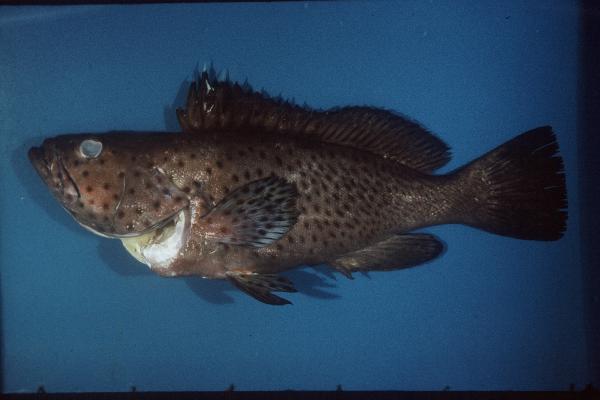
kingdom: Animalia
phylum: Chordata
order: Perciformes
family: Serranidae
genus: Epinephelus
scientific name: Epinephelus longispinis
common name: Longspine grouper
